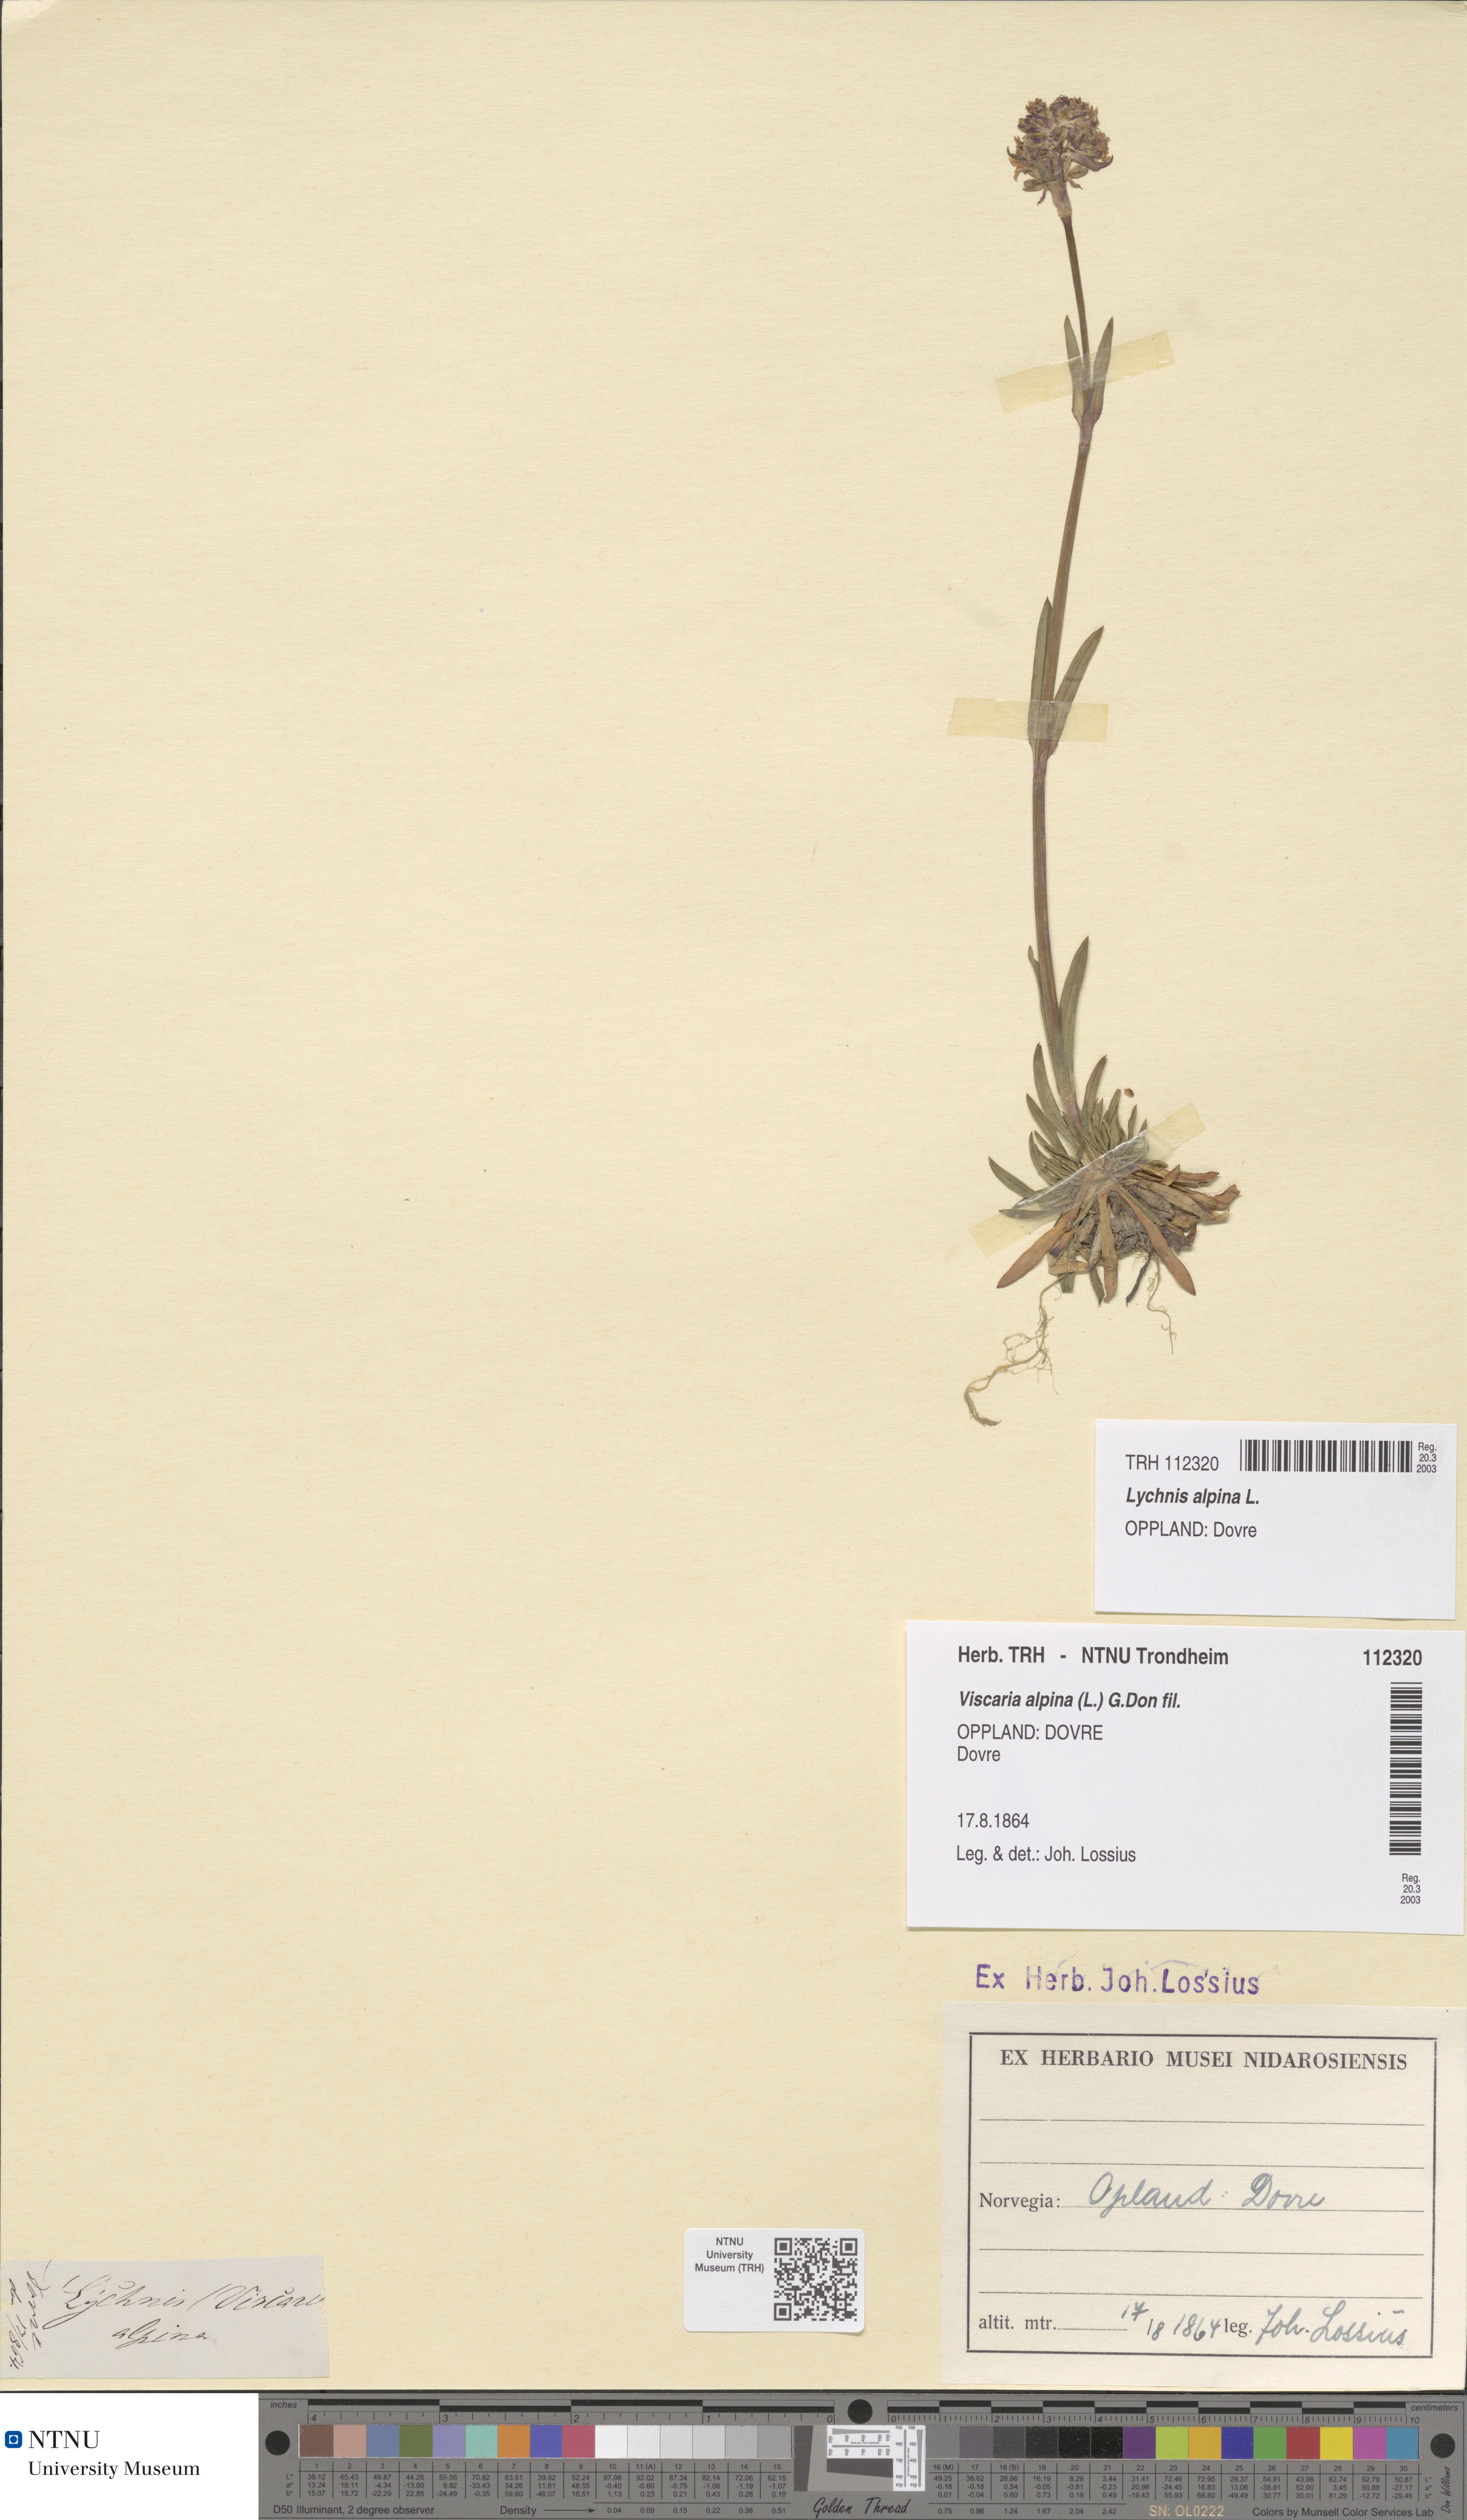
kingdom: Plantae
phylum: Tracheophyta
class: Magnoliopsida
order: Caryophyllales
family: Caryophyllaceae
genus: Viscaria
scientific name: Viscaria alpina
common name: Alpine campion
